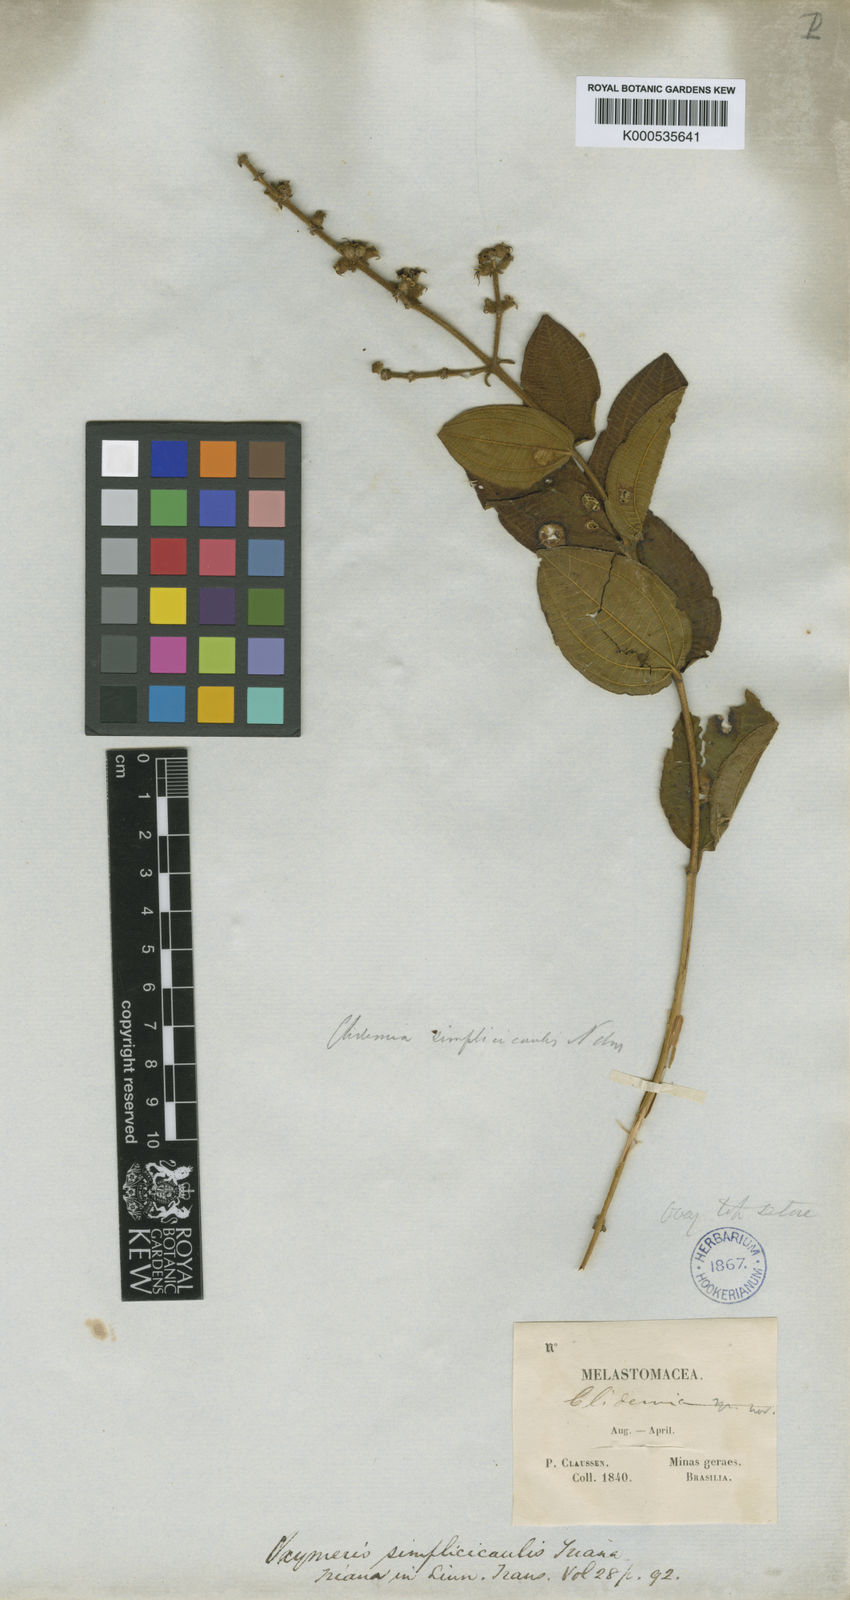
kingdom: Plantae
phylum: Tracheophyta
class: Magnoliopsida
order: Myrtales
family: Melastomataceae
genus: Miconia
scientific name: Miconia simplicicaulis
